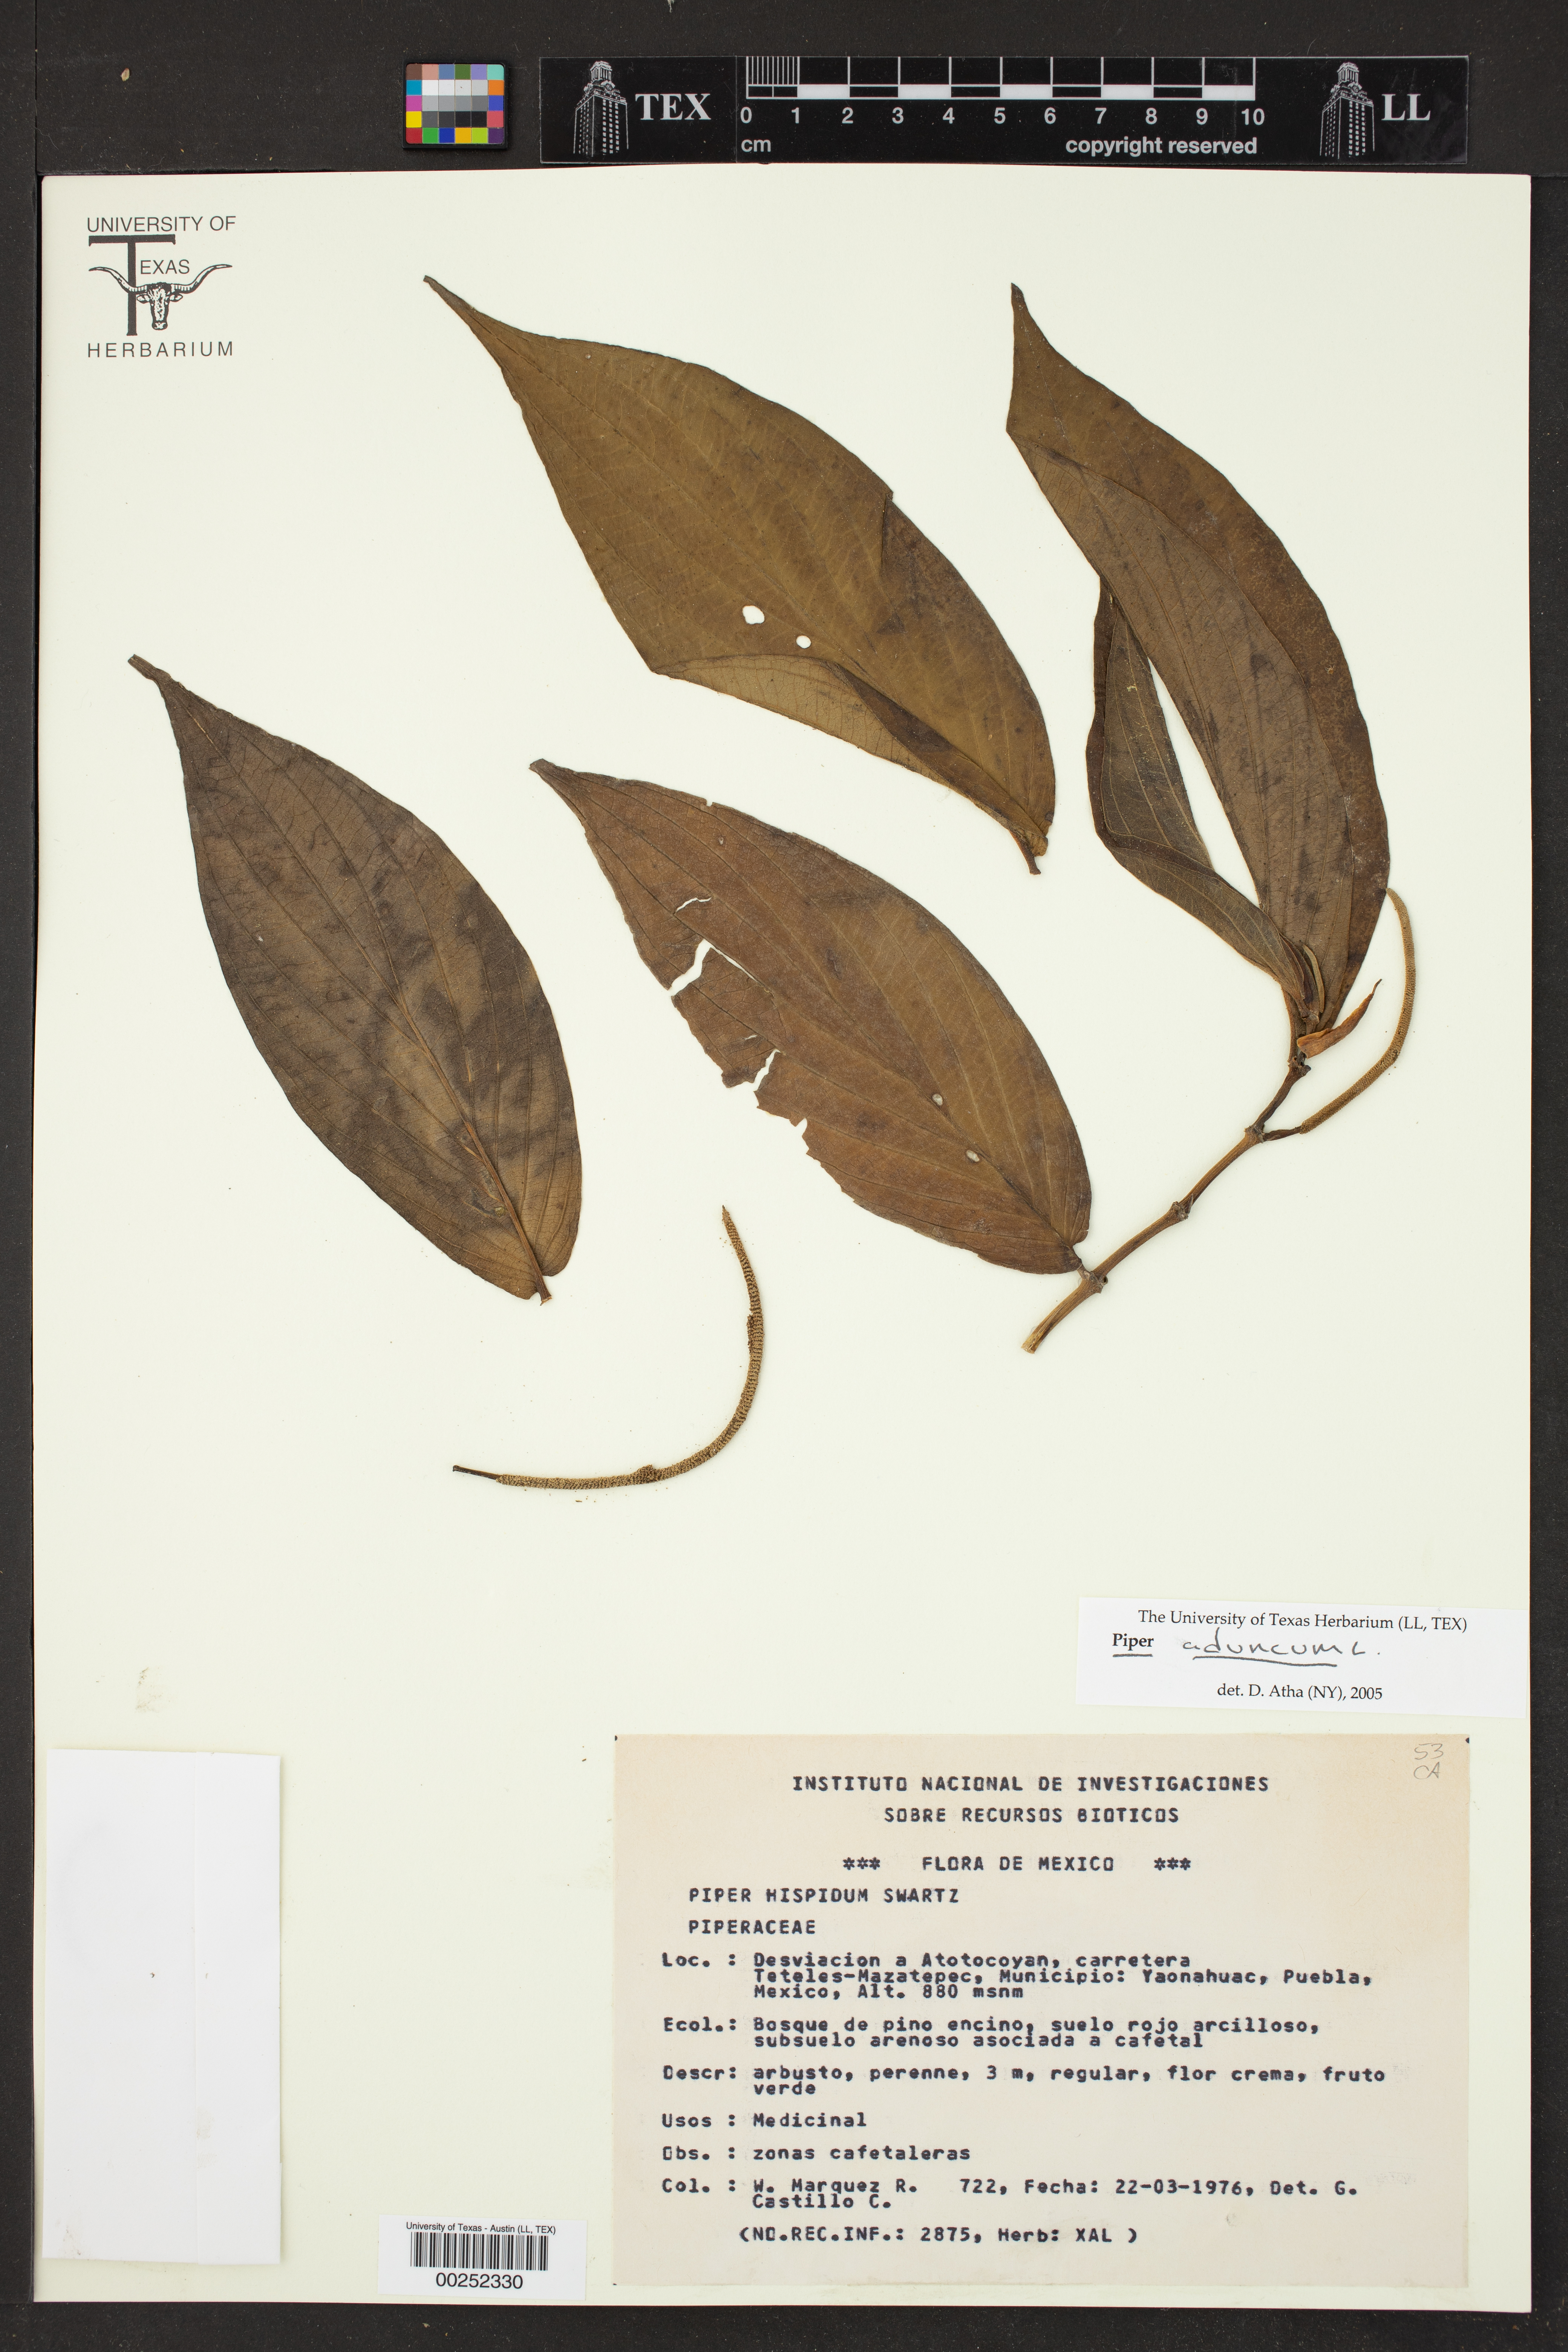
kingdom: Plantae
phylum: Tracheophyta
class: Magnoliopsida
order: Piperales
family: Piperaceae
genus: Piper
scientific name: Piper hispidum
